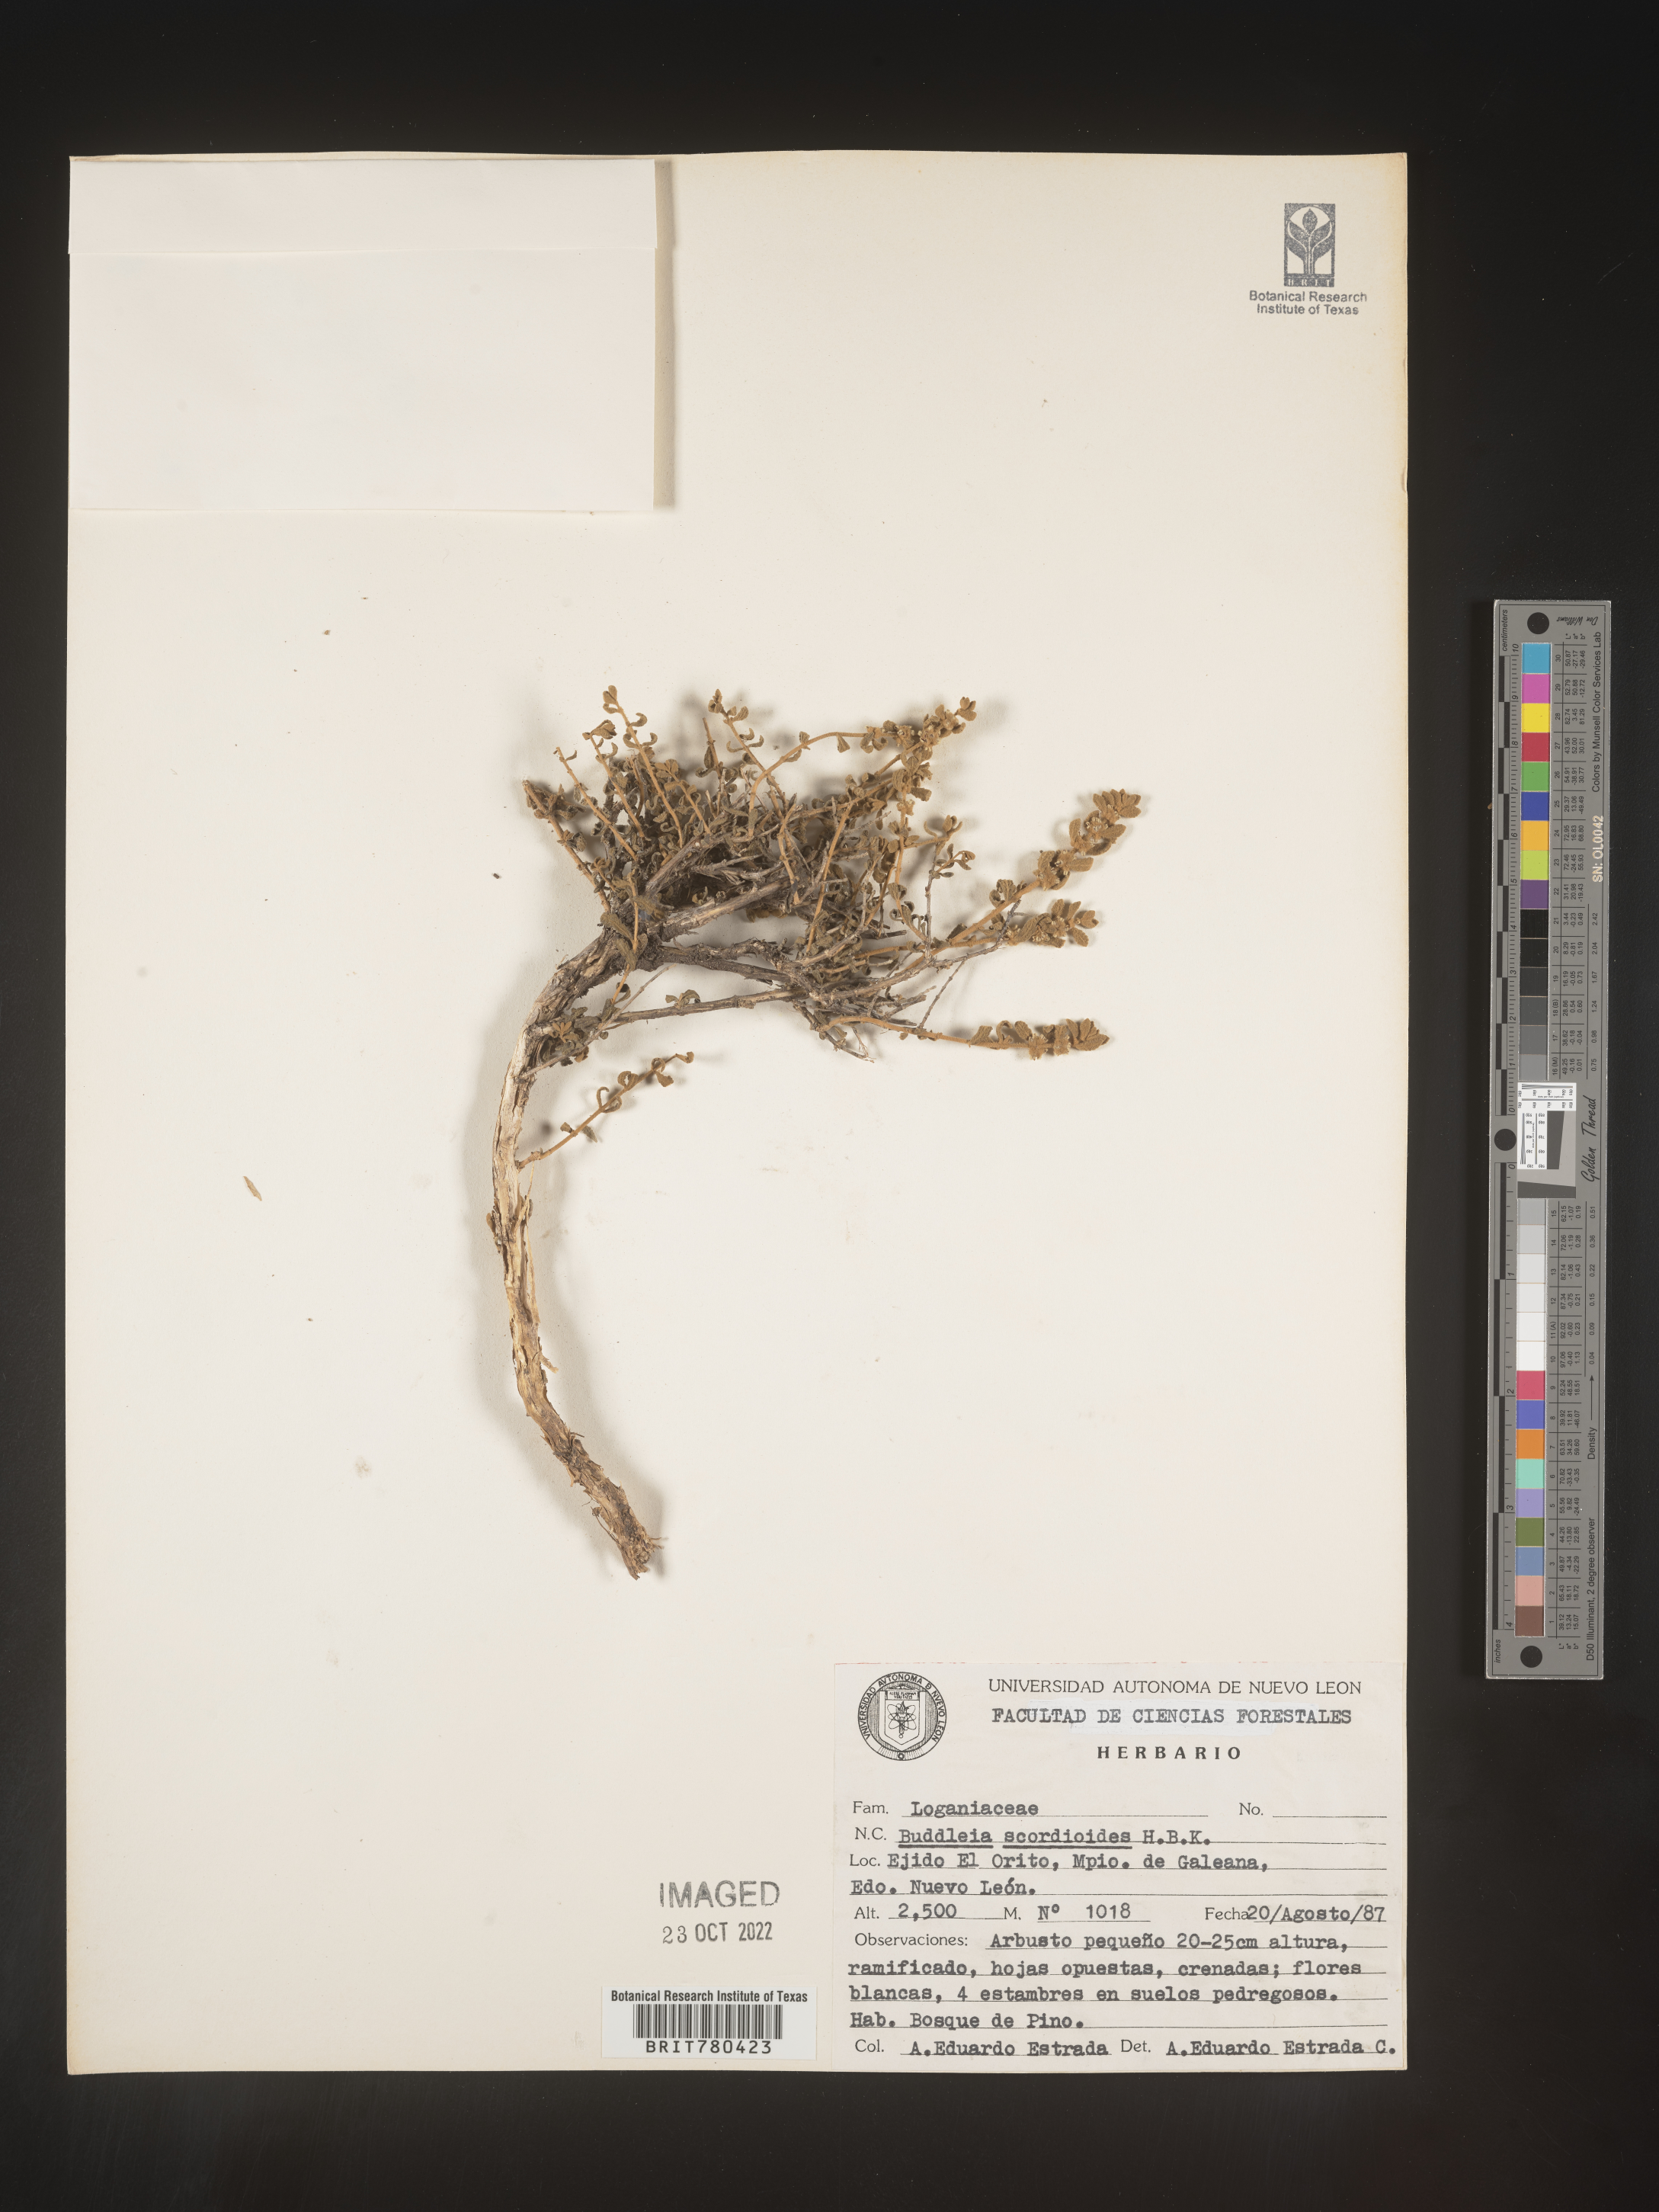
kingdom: Plantae
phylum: Tracheophyta
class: Magnoliopsida
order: Lamiales
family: Scrophulariaceae
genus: Buddleja
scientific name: Buddleja
